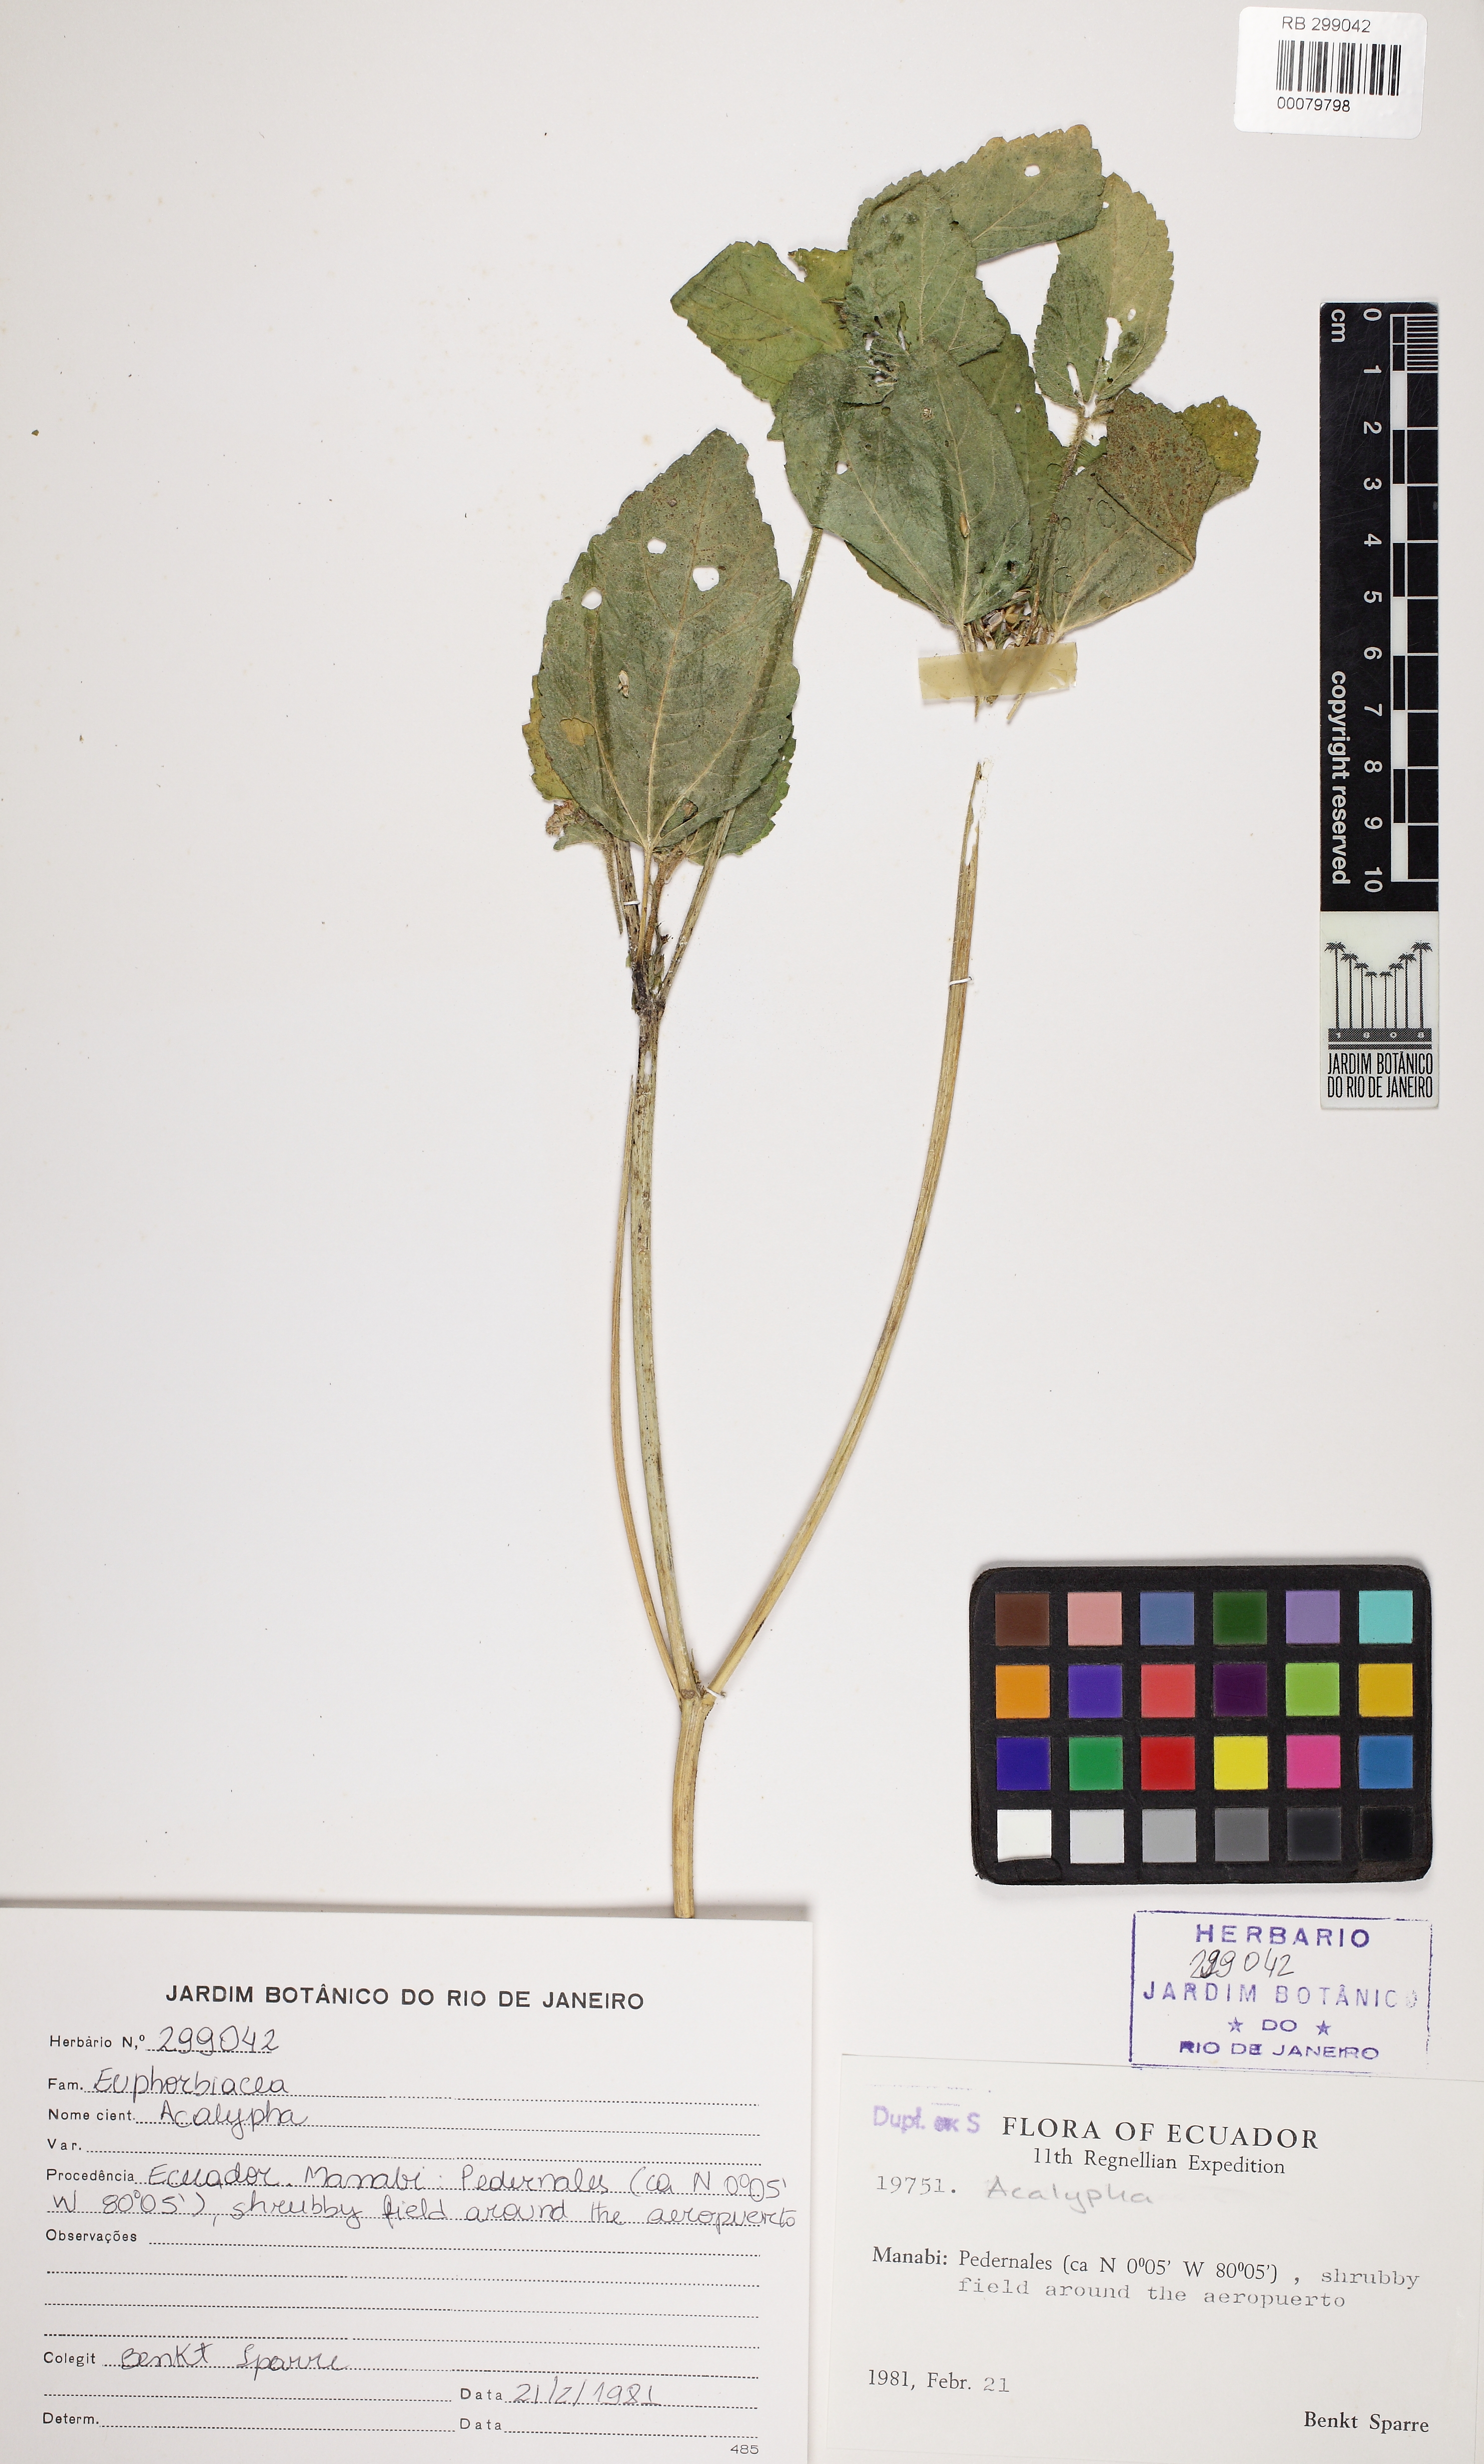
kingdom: Plantae
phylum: Tracheophyta
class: Magnoliopsida
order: Malpighiales
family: Euphorbiaceae
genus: Acalypha
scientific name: Acalypha
